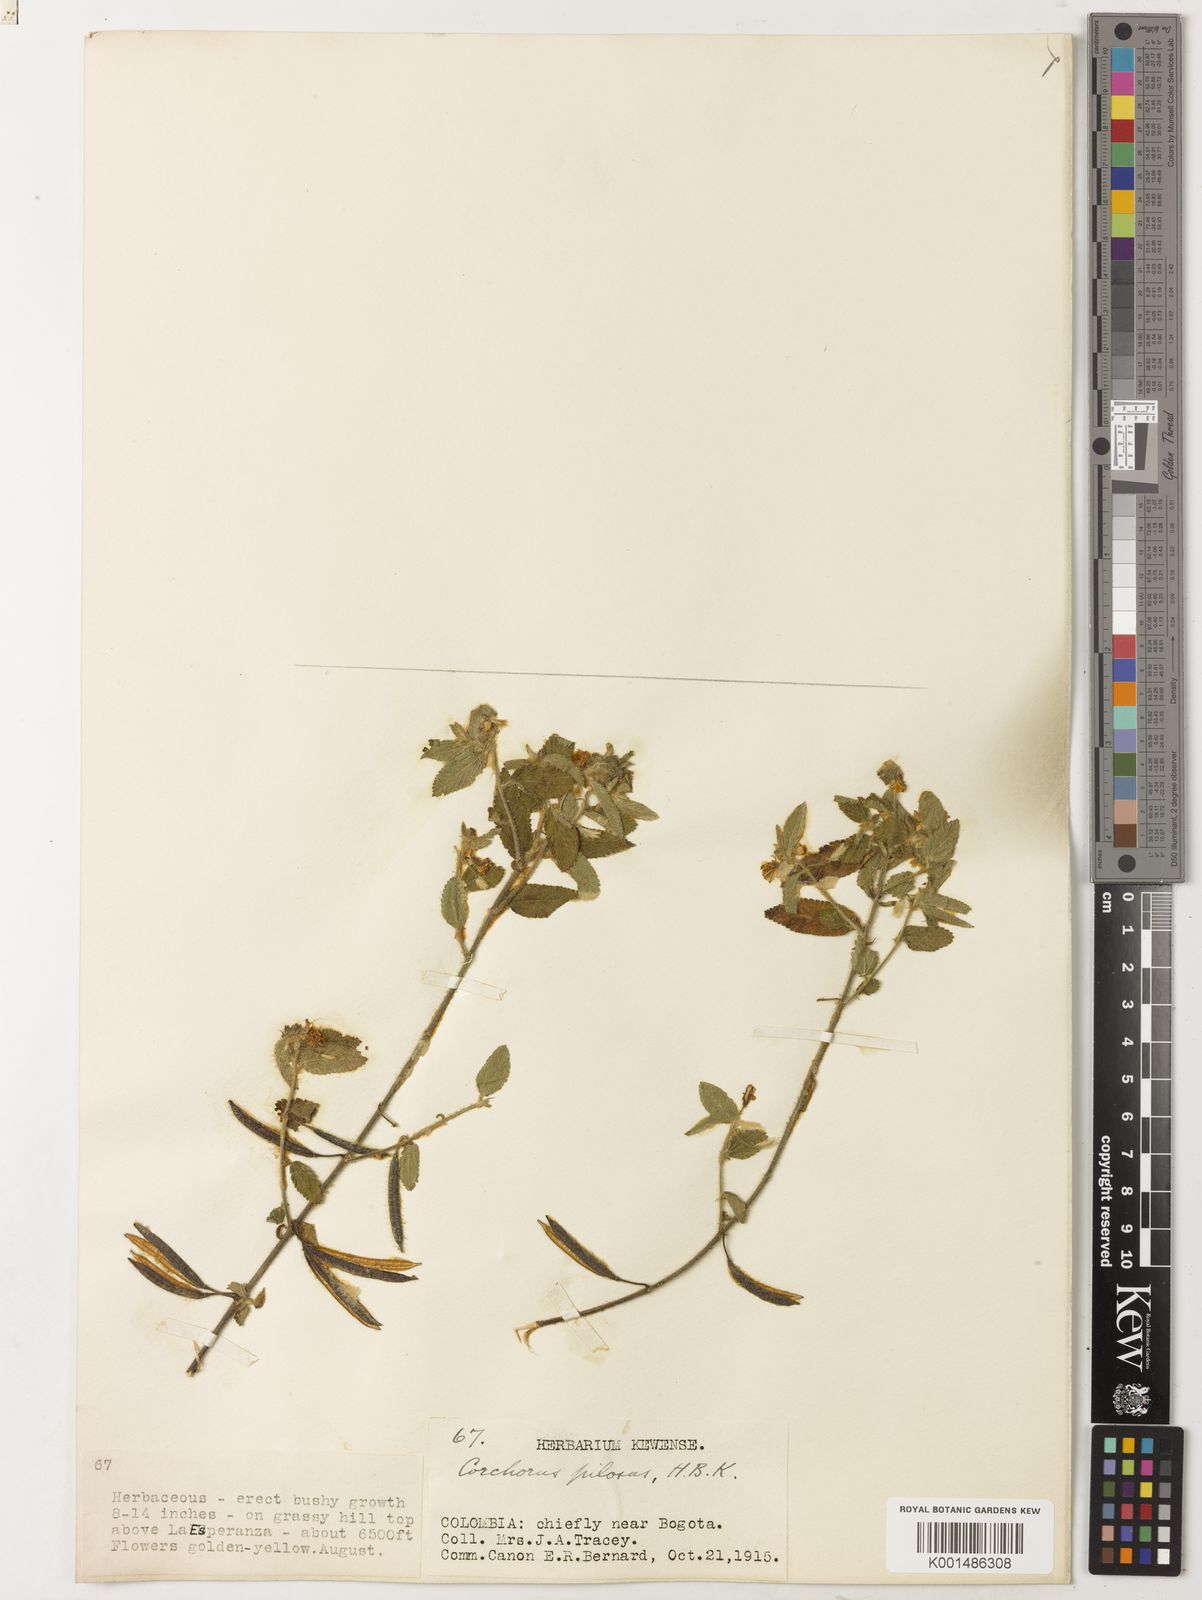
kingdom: Plantae
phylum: Tracheophyta
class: Magnoliopsida
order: Malvales
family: Malvaceae
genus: Corchorus
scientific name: Corchorus hirtus
